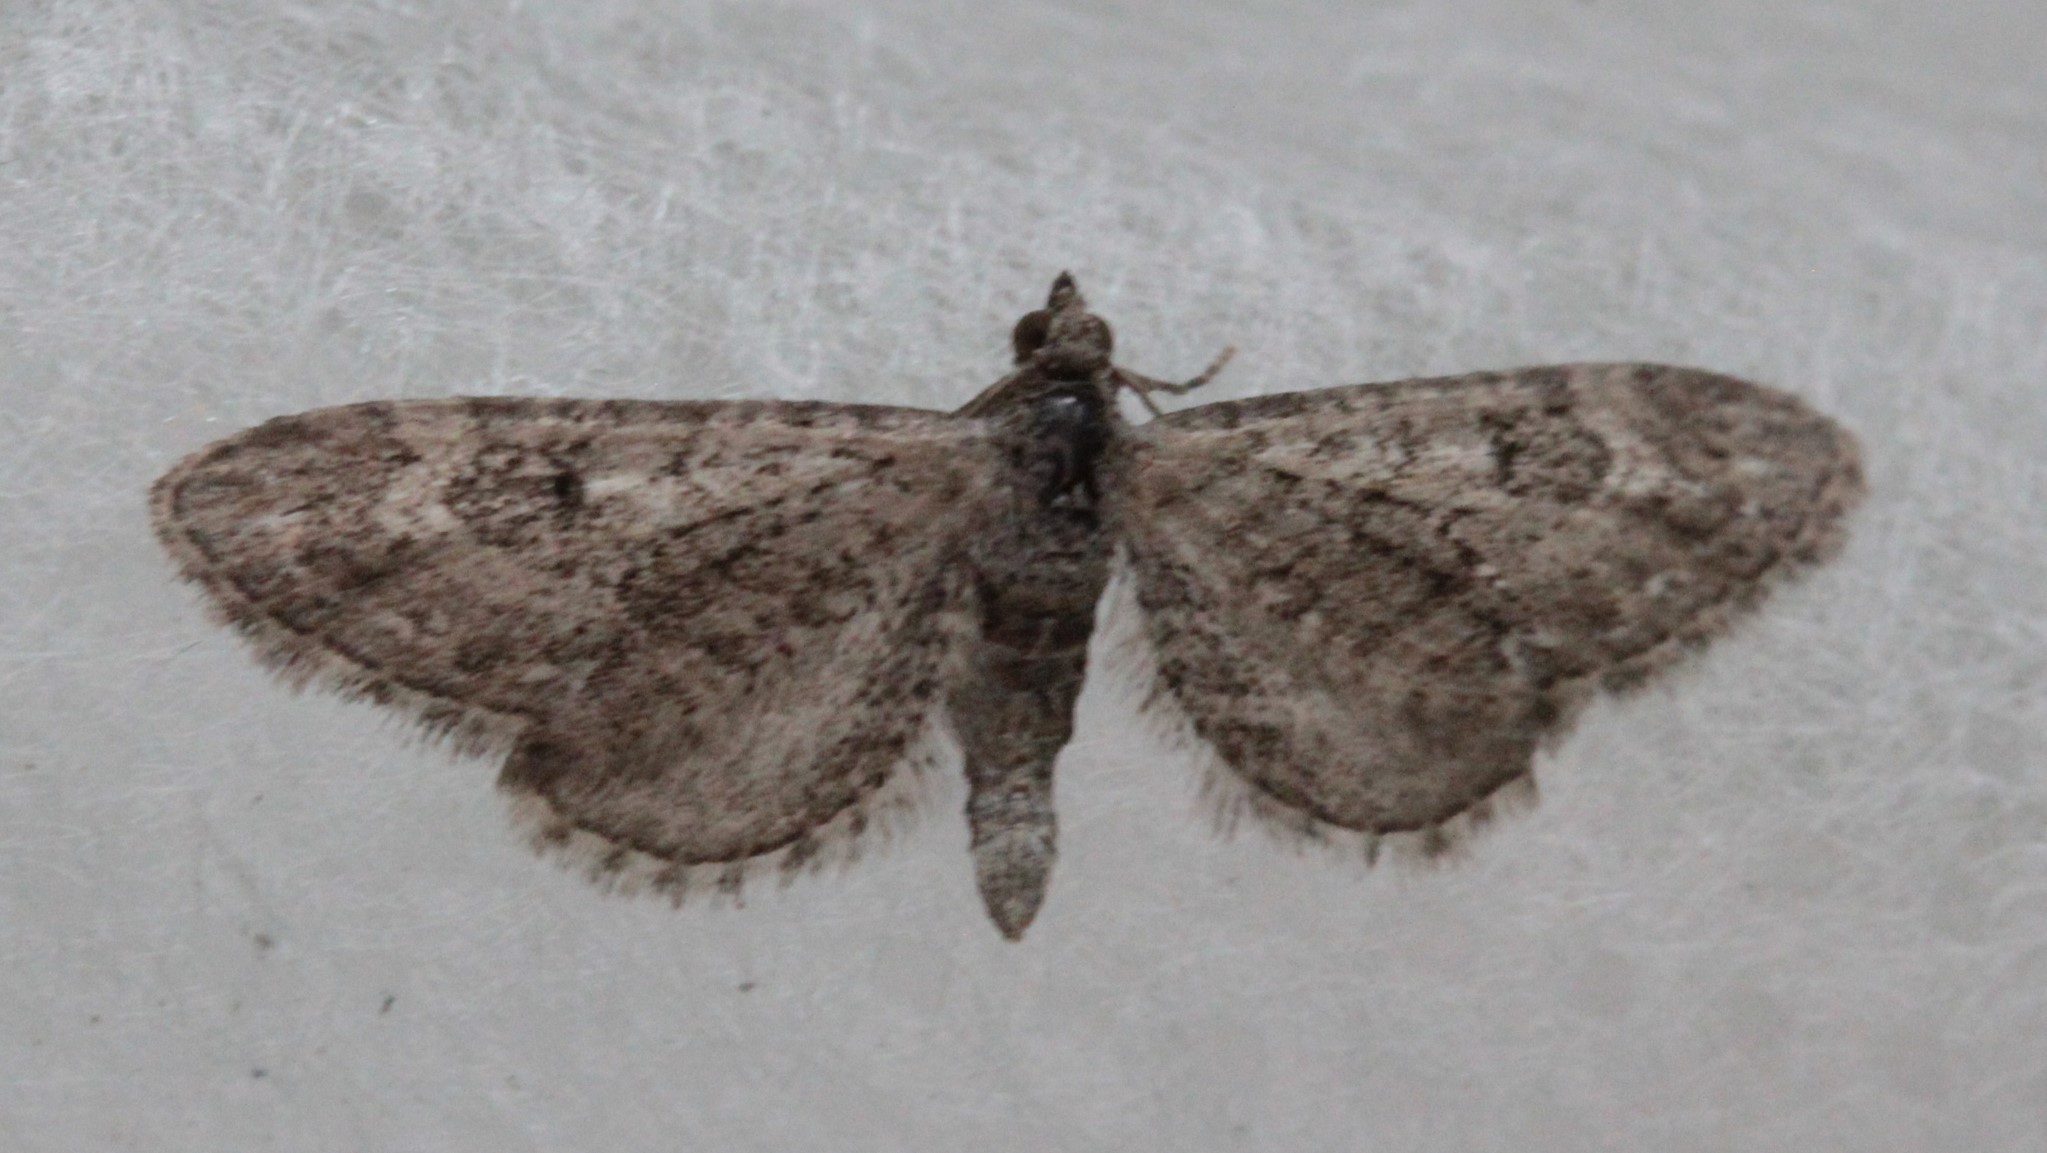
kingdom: Animalia
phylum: Arthropoda
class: Insecta
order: Lepidoptera
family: Geometridae
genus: Eupithecia
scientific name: Eupithecia
